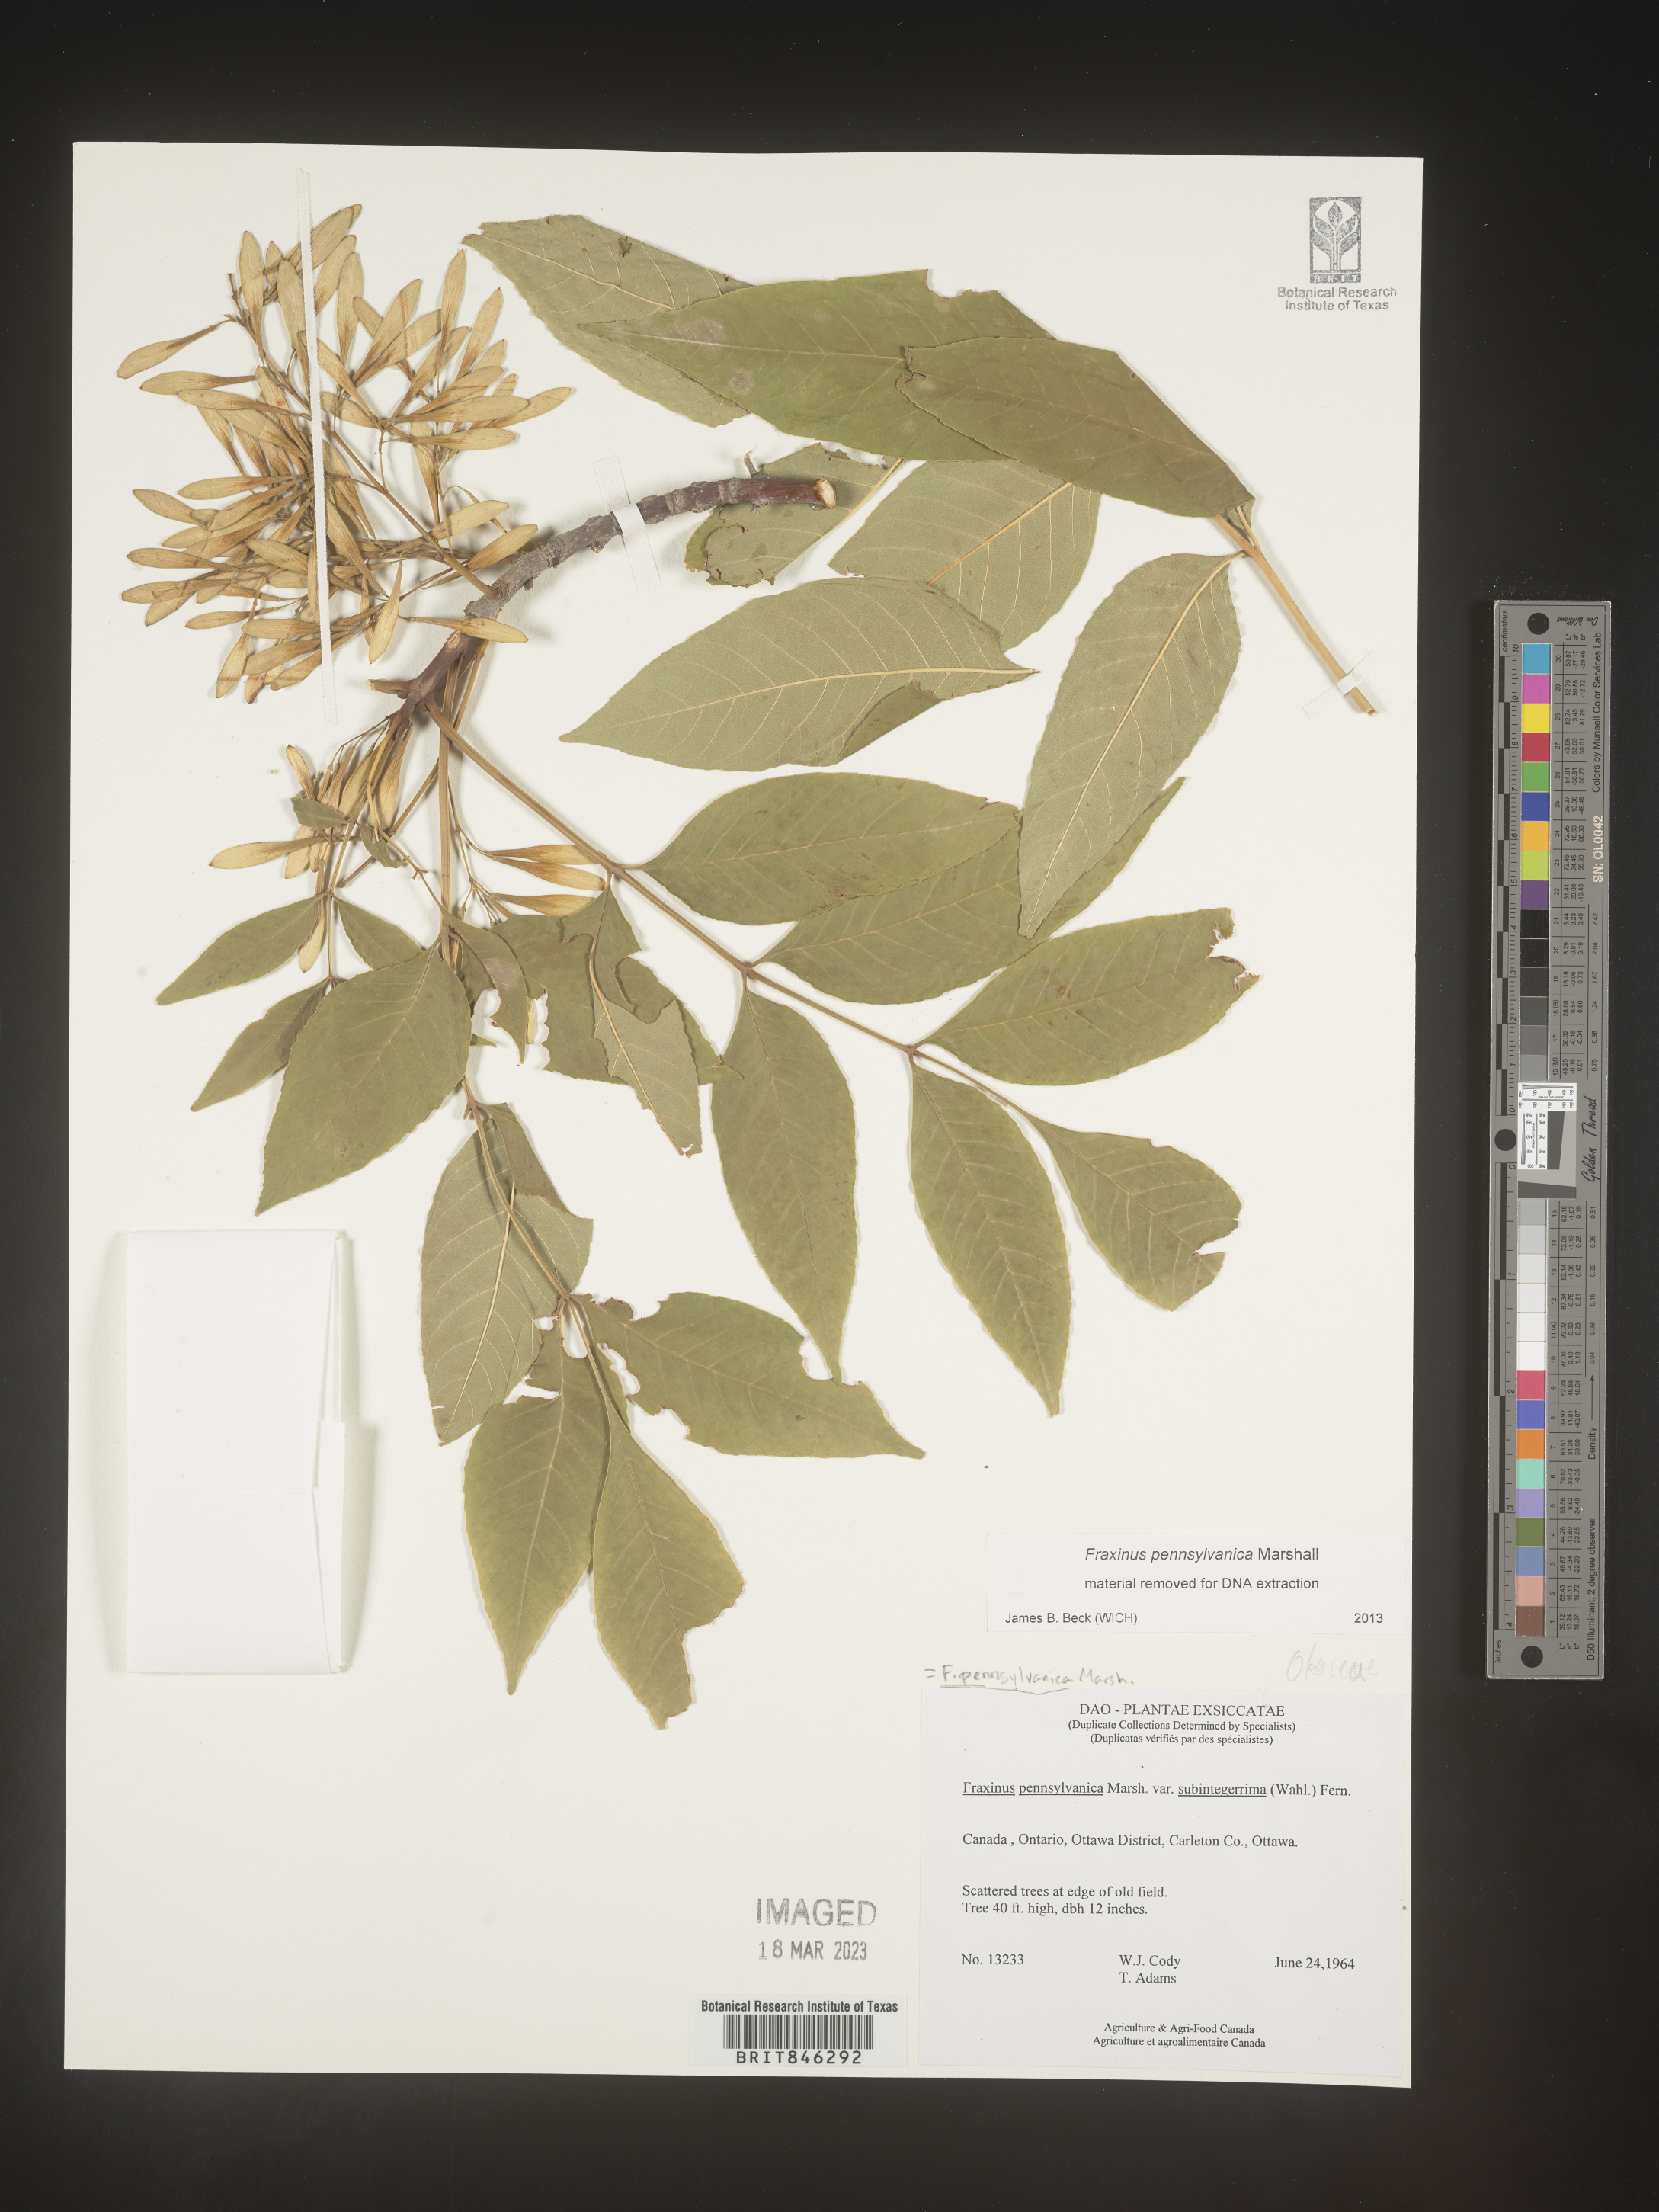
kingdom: Plantae
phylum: Tracheophyta
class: Magnoliopsida
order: Lamiales
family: Oleaceae
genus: Fraxinus
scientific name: Fraxinus pennsylvanica
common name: Green ash
